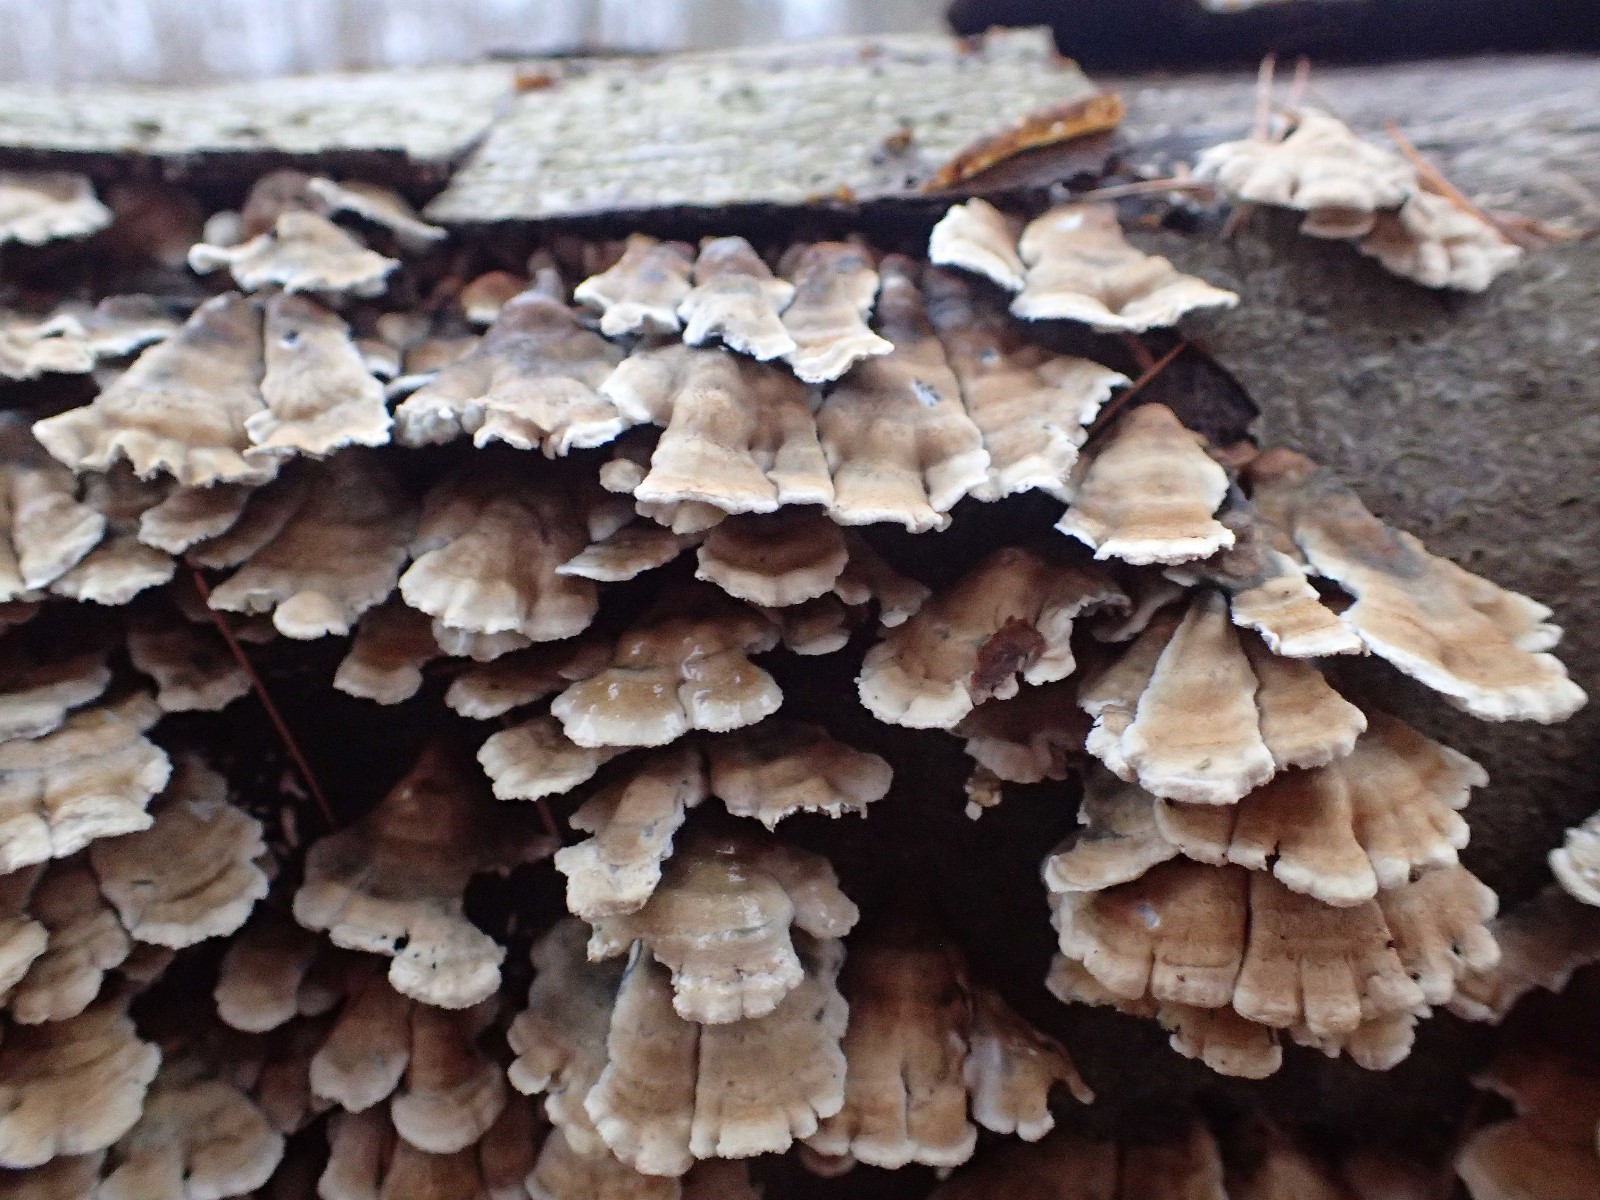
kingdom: Fungi
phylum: Basidiomycota
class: Agaricomycetes
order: Amylocorticiales
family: Amylocorticiaceae
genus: Plicaturopsis
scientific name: Plicaturopsis crispa
